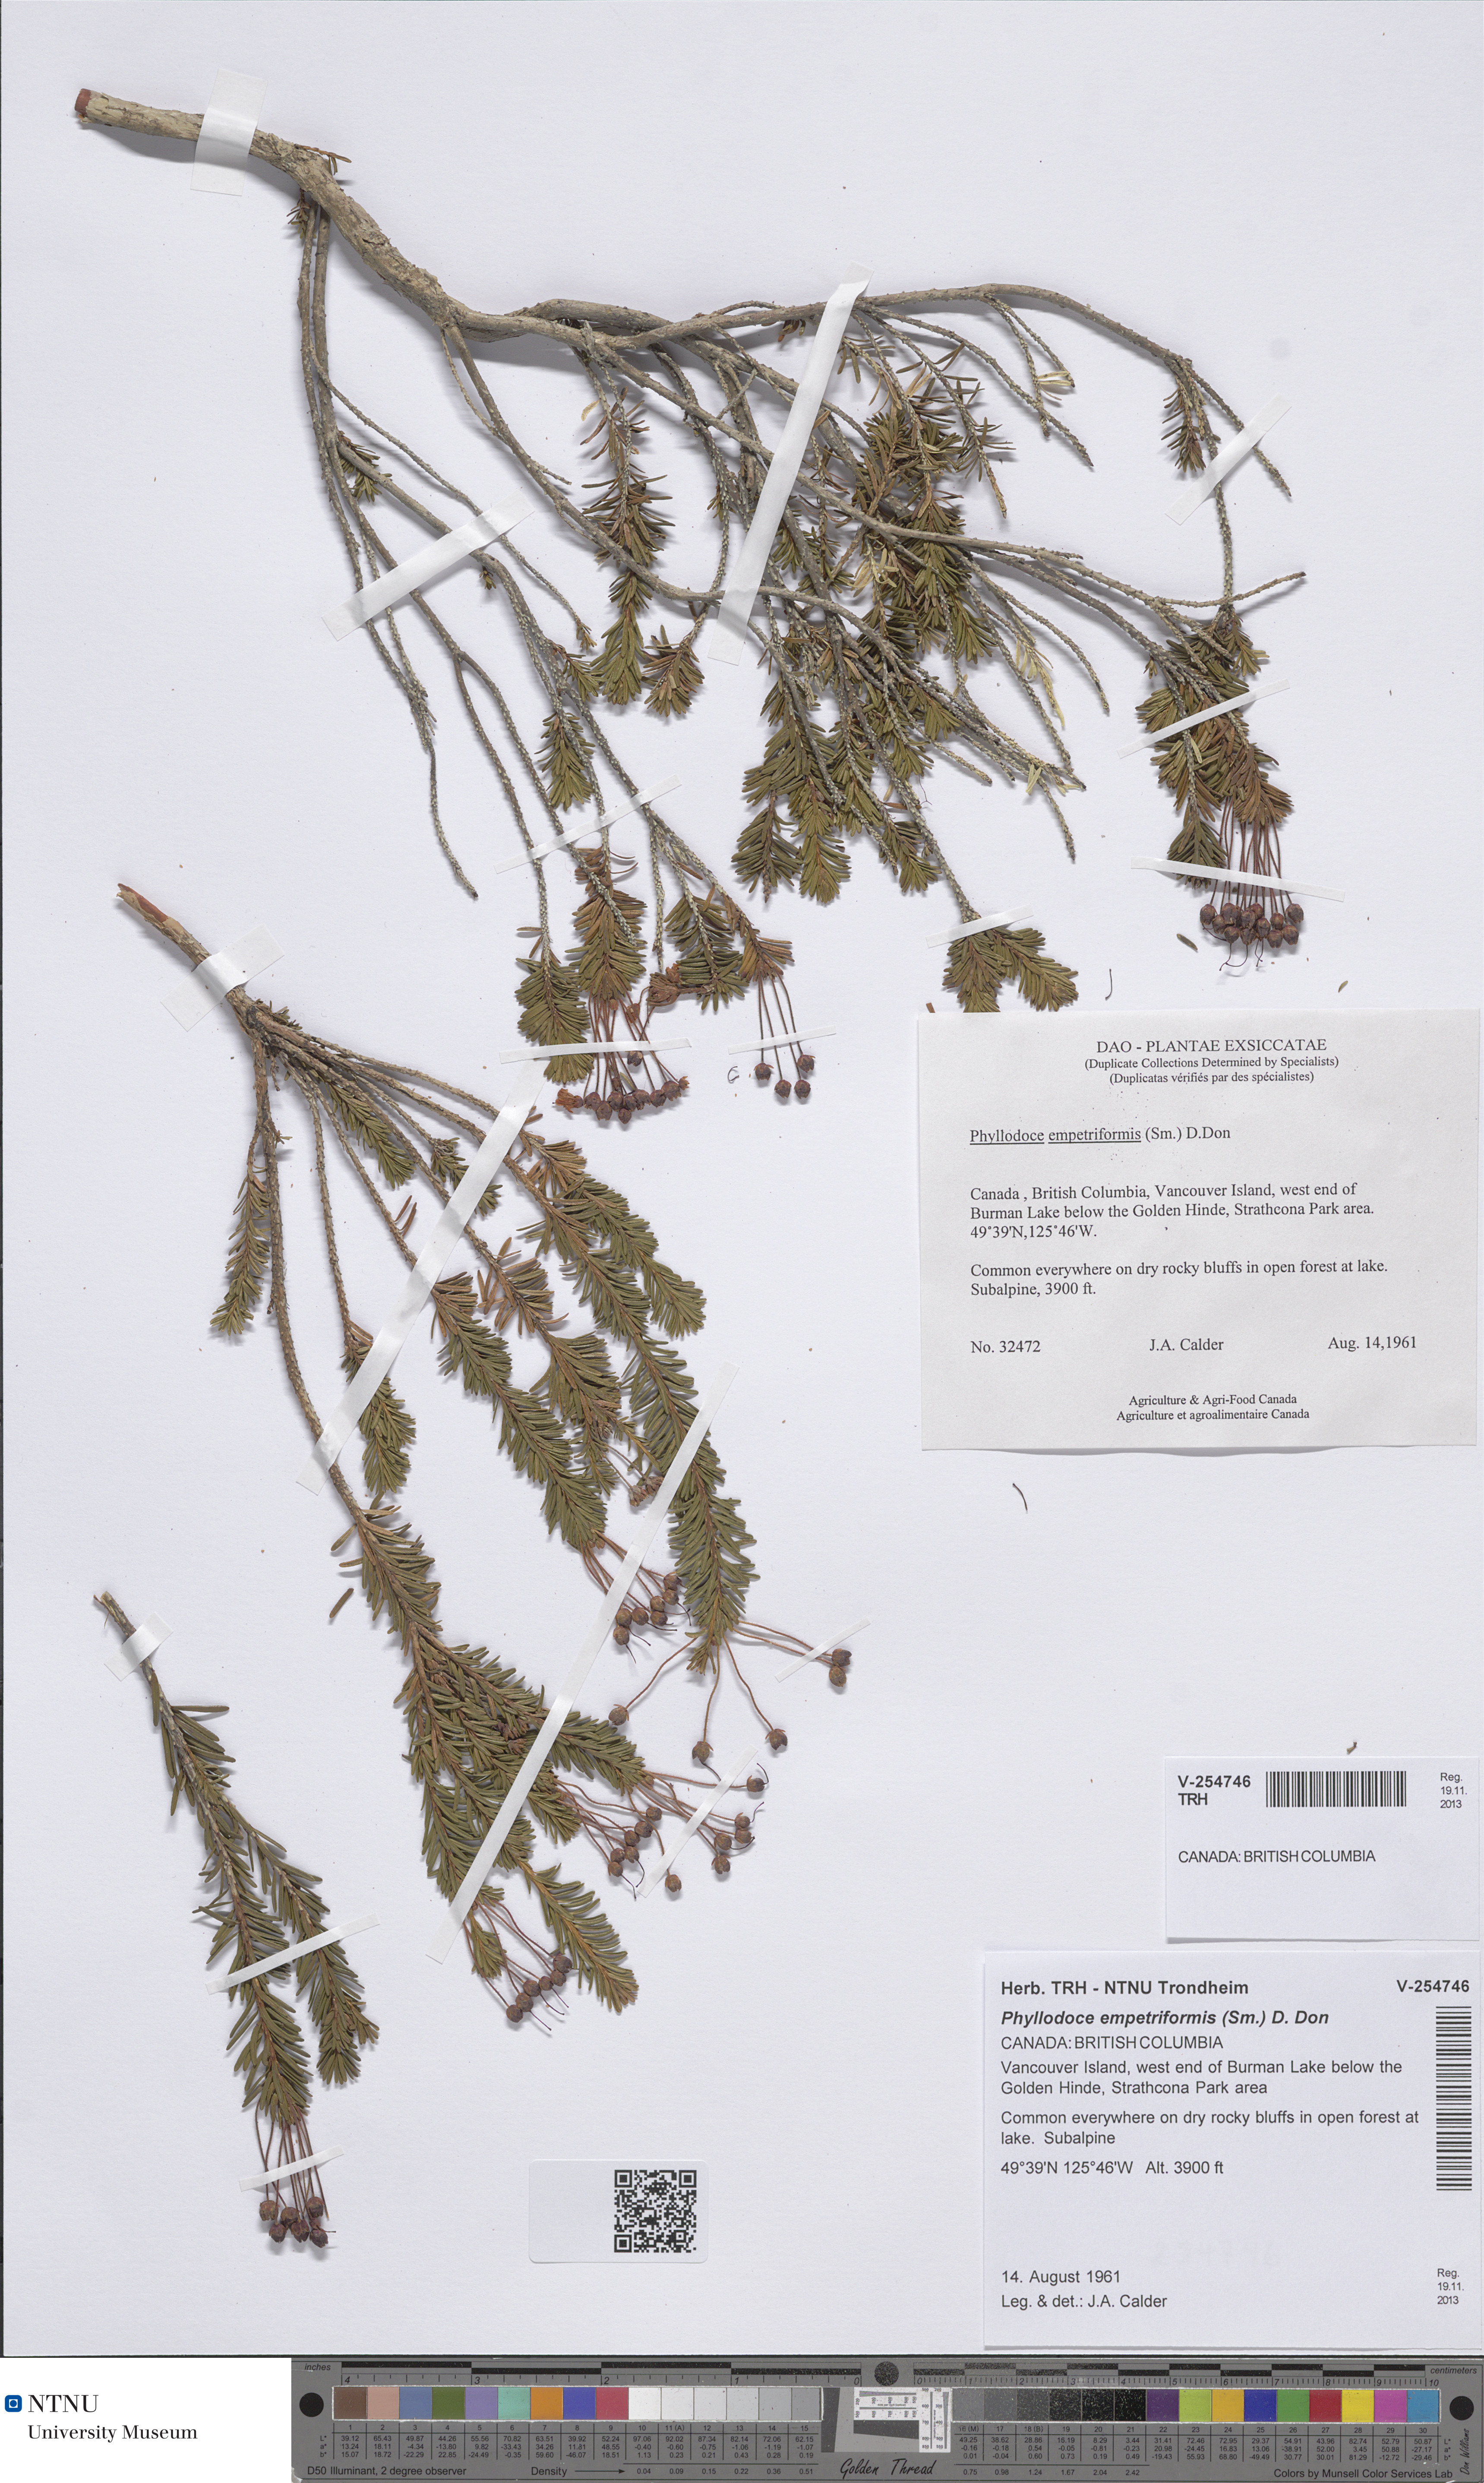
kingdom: Plantae
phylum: Tracheophyta
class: Magnoliopsida
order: Ericales
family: Ericaceae
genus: Phyllodoce
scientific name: Phyllodoce empetriformis
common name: Pink mountain heather
